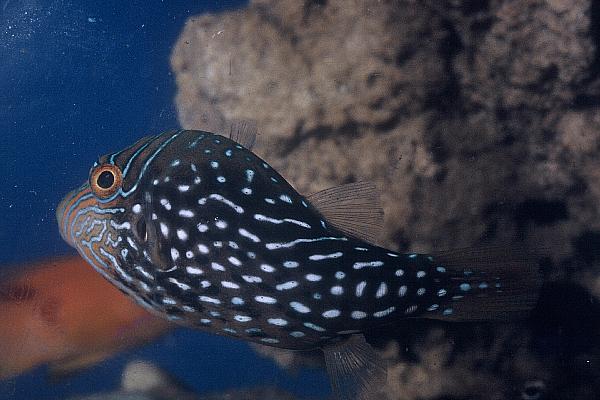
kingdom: Animalia
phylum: Chordata
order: Tetraodontiformes
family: Tetraodontidae
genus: Canthigaster
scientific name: Canthigaster amboinensis
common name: Ambon pufferfish
